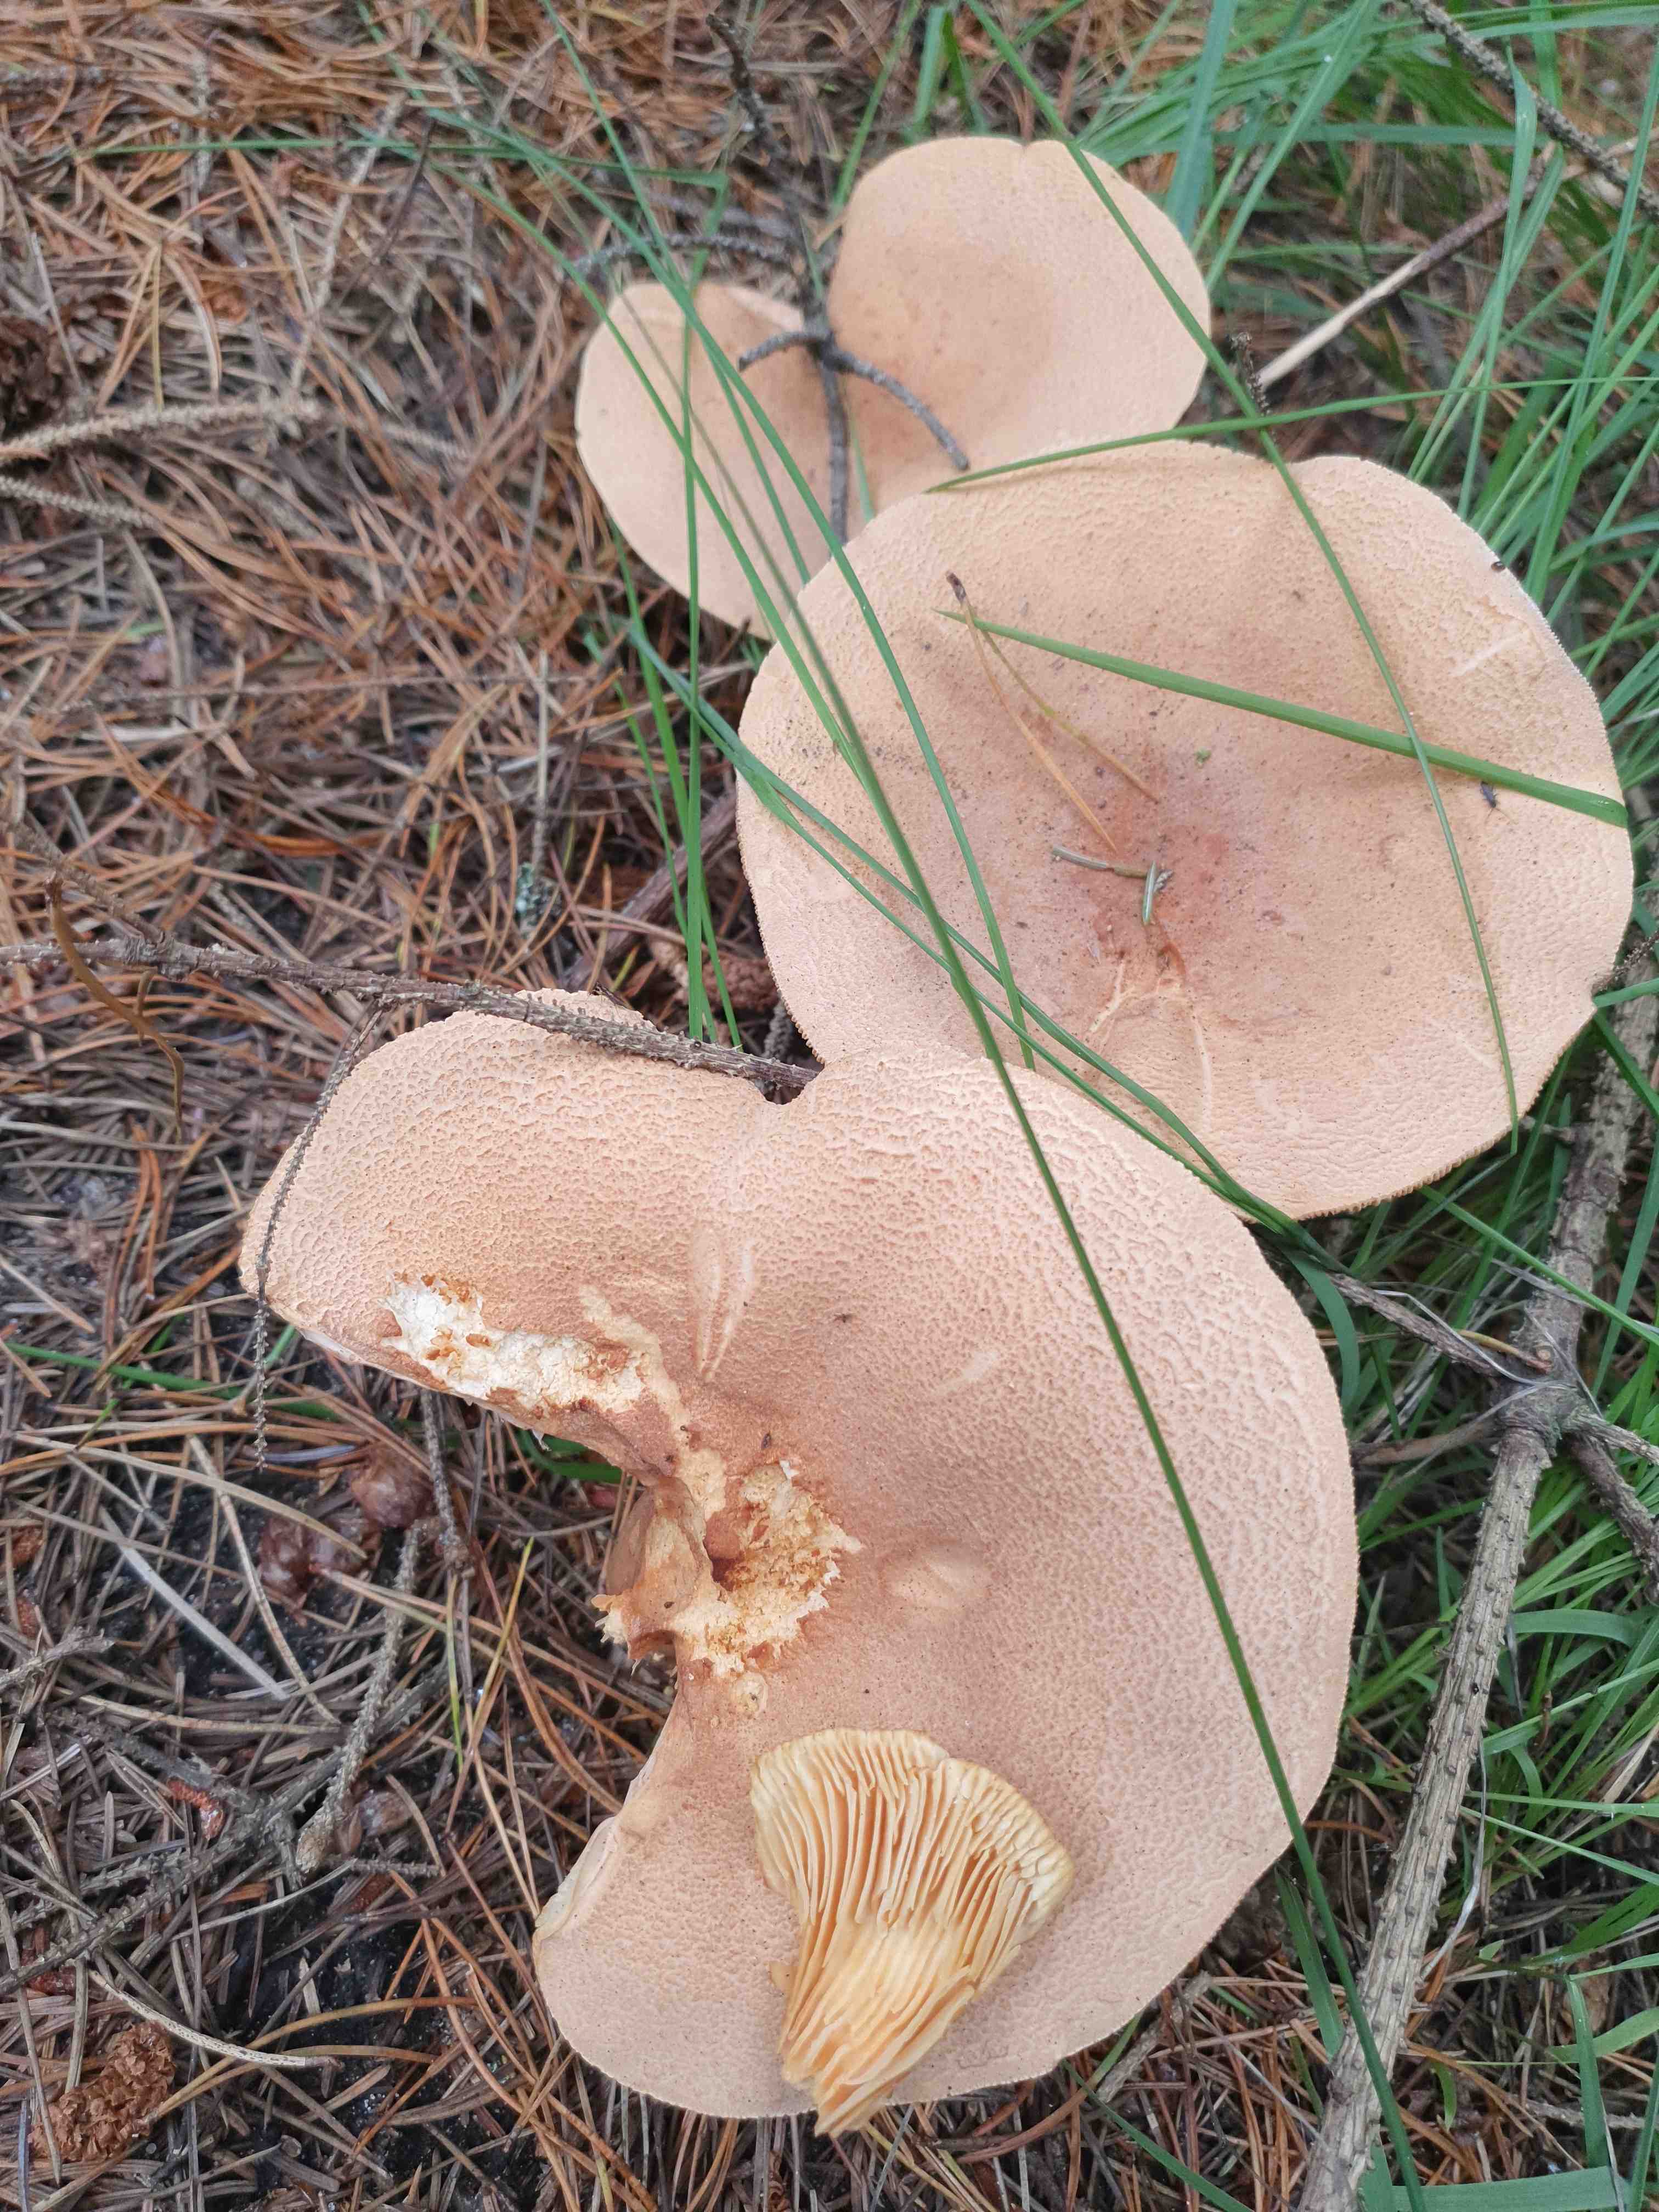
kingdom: Fungi
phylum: Basidiomycota
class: Agaricomycetes
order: Russulales
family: Russulaceae
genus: Lactarius
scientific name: Lactarius helvus
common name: mose-mælkehat
